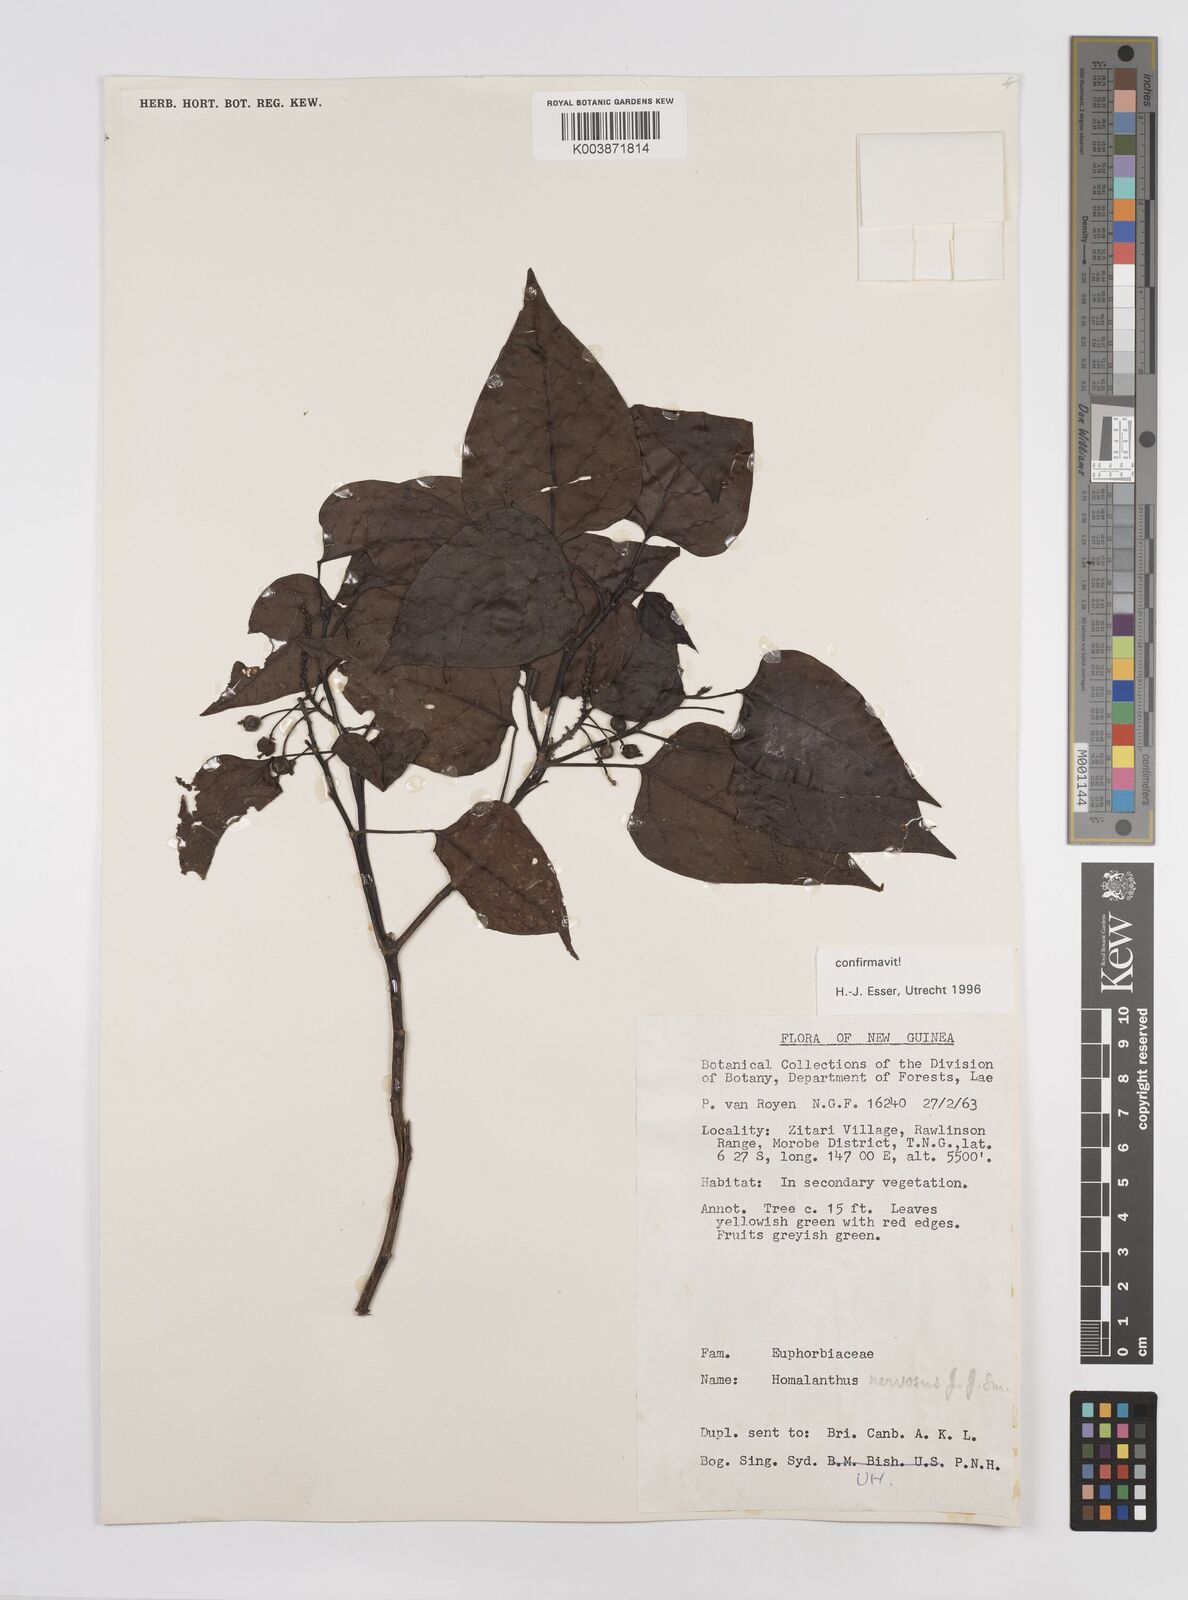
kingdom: Plantae
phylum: Tracheophyta
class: Magnoliopsida
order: Malpighiales
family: Euphorbiaceae
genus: Homalanthus
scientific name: Homalanthus nervosus
